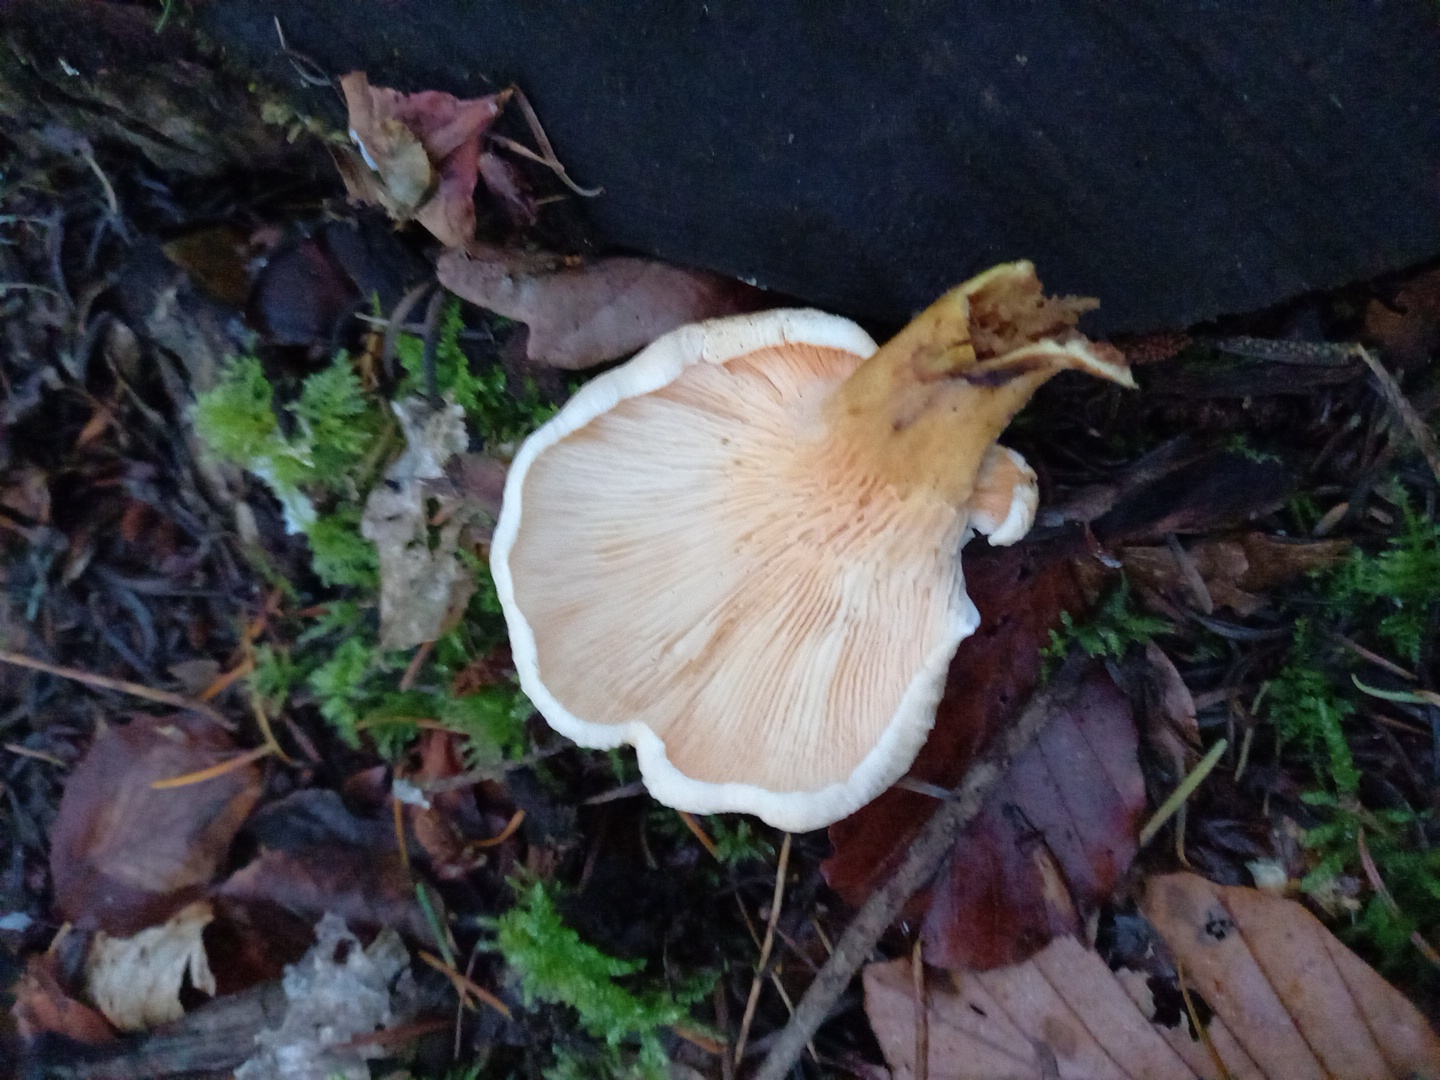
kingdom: Fungi
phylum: Basidiomycota
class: Agaricomycetes
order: Boletales
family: Hygrophoropsidaceae
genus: Hygrophoropsis
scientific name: Hygrophoropsis
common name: orangekantarel
